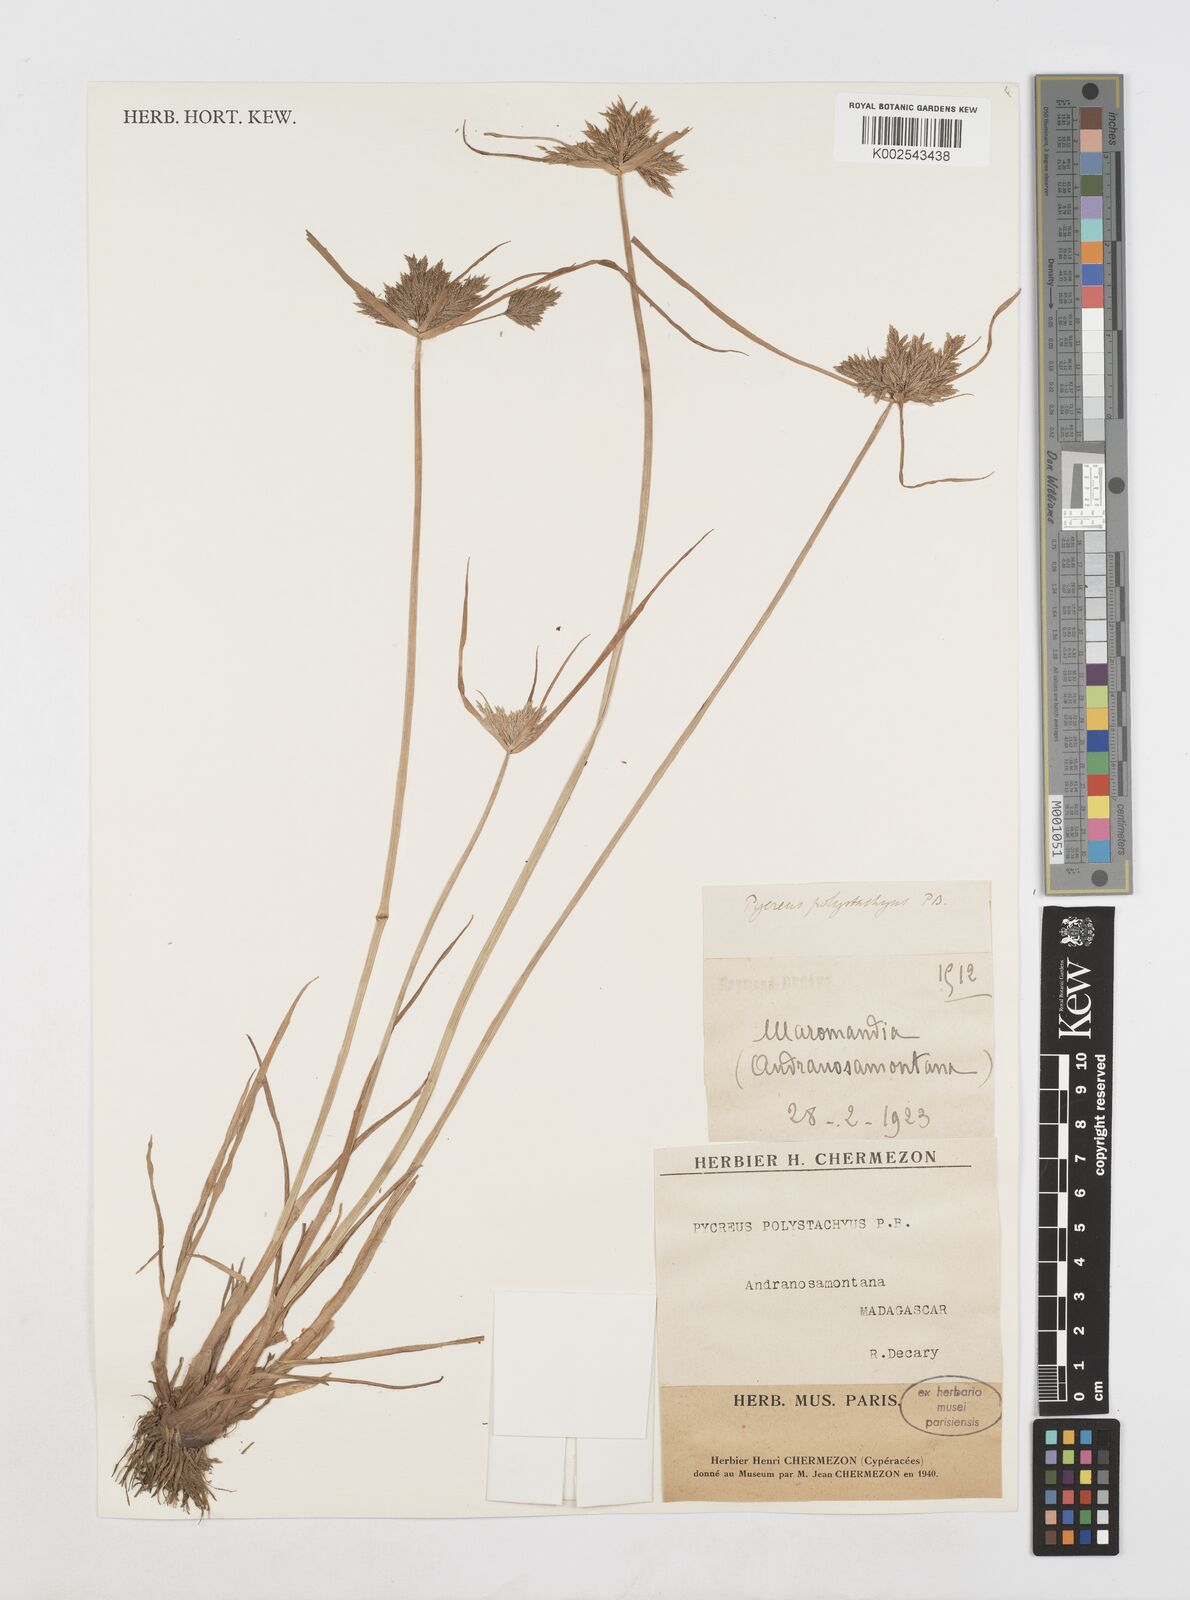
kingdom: Plantae
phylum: Tracheophyta
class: Liliopsida
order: Poales
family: Cyperaceae
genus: Cyperus
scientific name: Cyperus polystachyos
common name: Bunchy flat sedge
